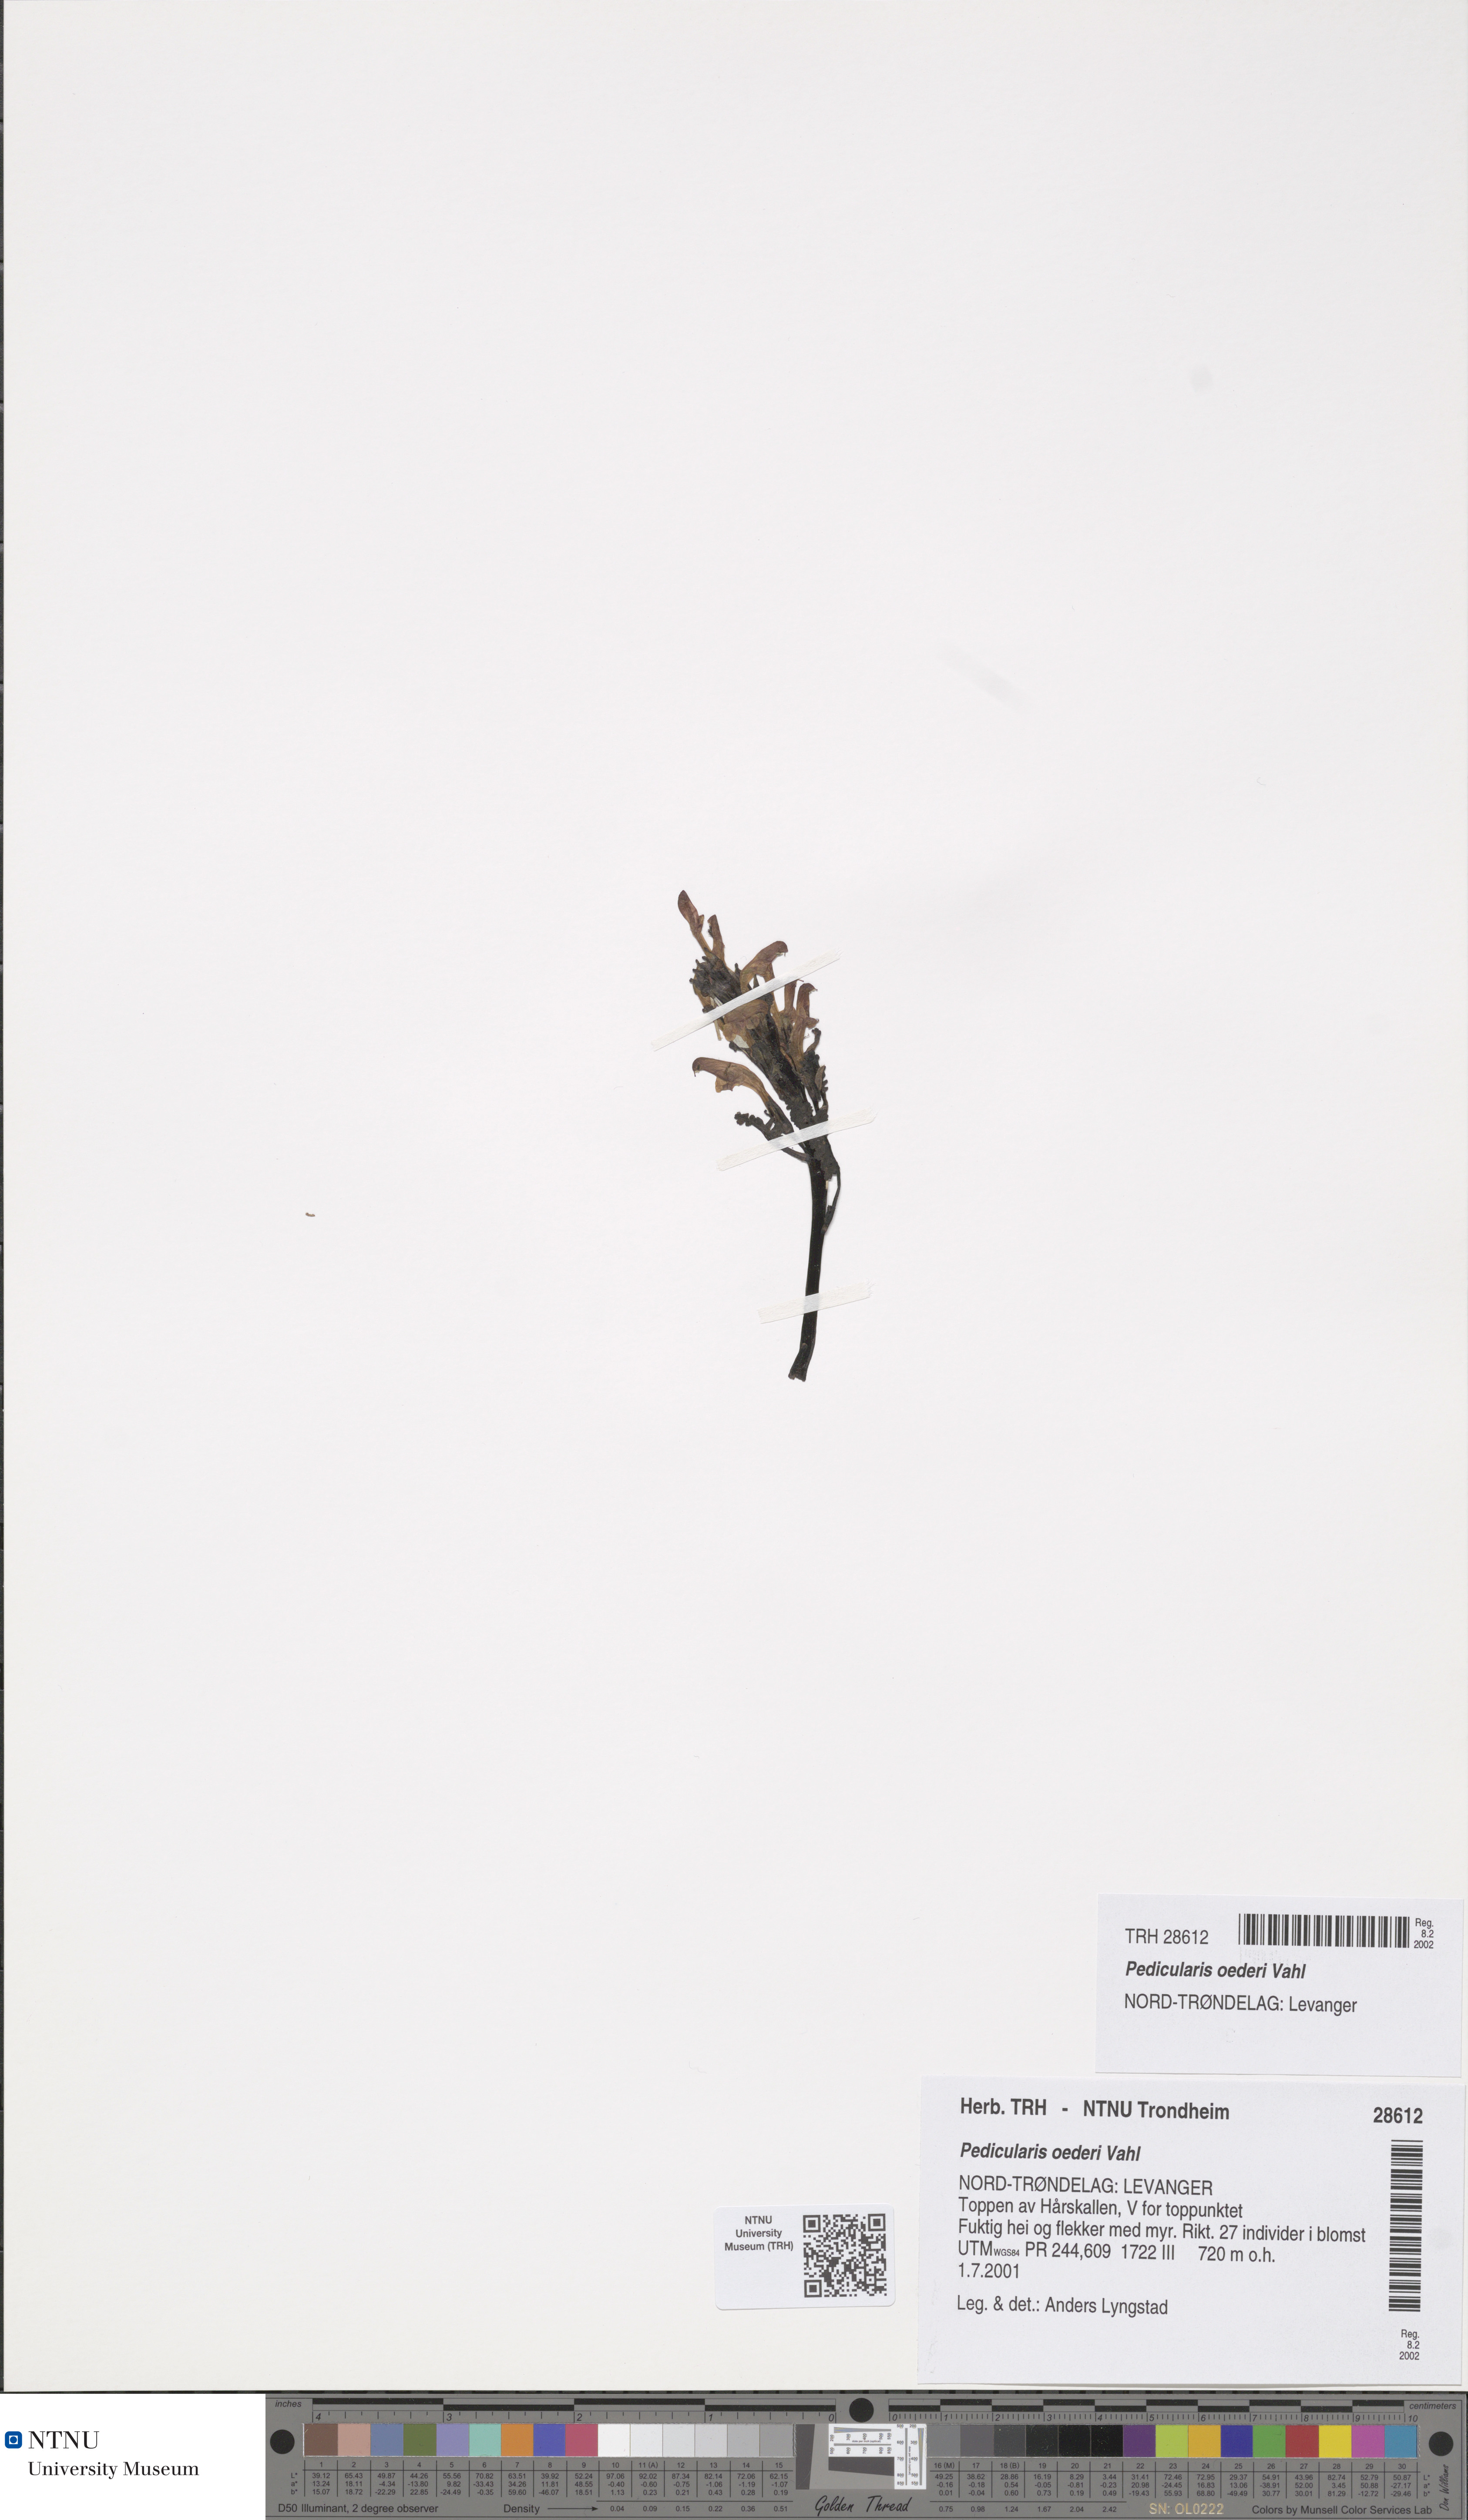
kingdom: Plantae
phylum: Tracheophyta
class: Magnoliopsida
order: Lamiales
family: Orobanchaceae
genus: Pedicularis
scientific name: Pedicularis oederi
